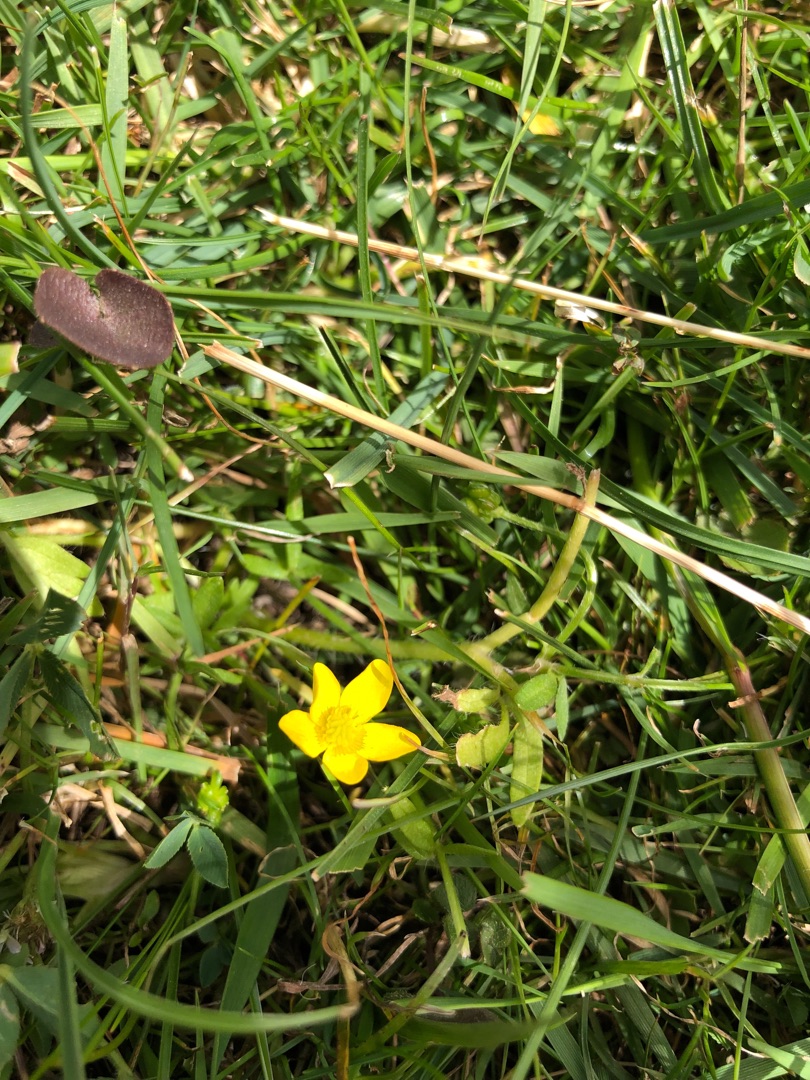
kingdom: Plantae
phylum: Tracheophyta
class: Magnoliopsida
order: Ranunculales
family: Ranunculaceae
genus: Ranunculus
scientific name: Ranunculus sardous
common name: Stivhåret ranunkel
